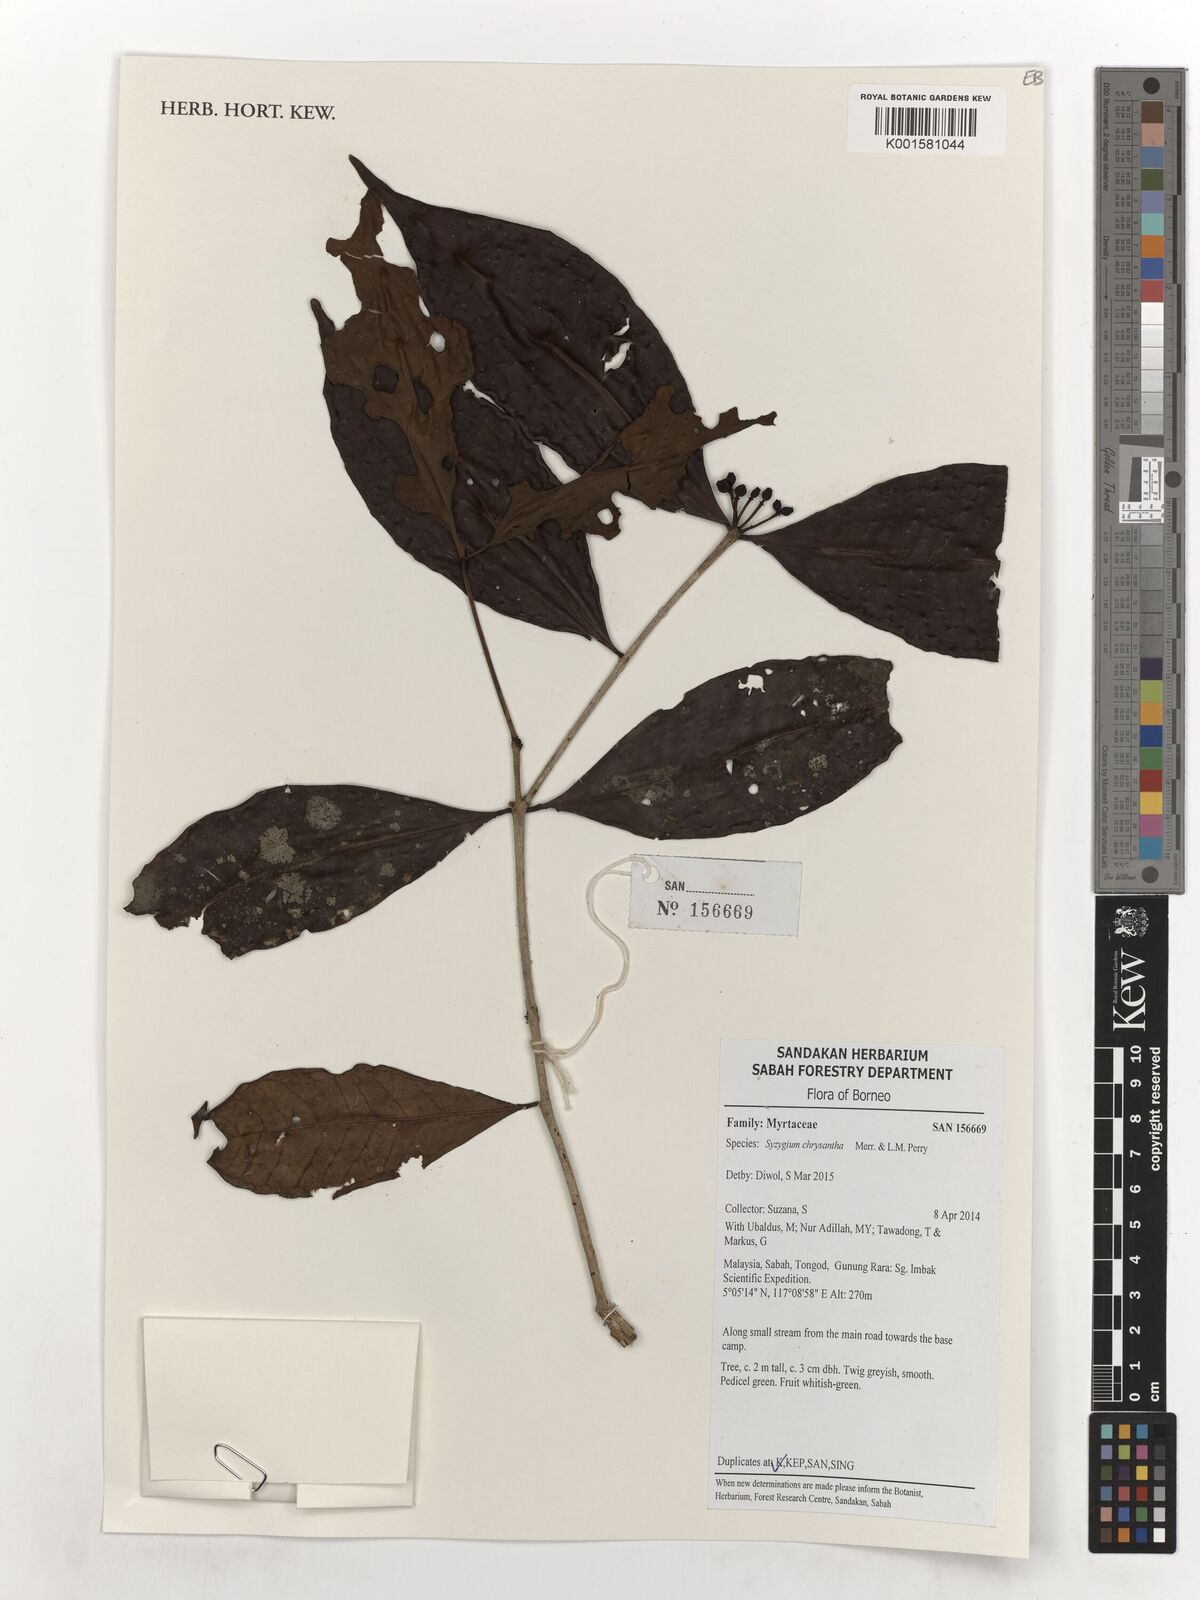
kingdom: Plantae
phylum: Tracheophyta
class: Magnoliopsida
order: Myrtales
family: Myrtaceae
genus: Syzygium
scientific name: Syzygium kunstleri
